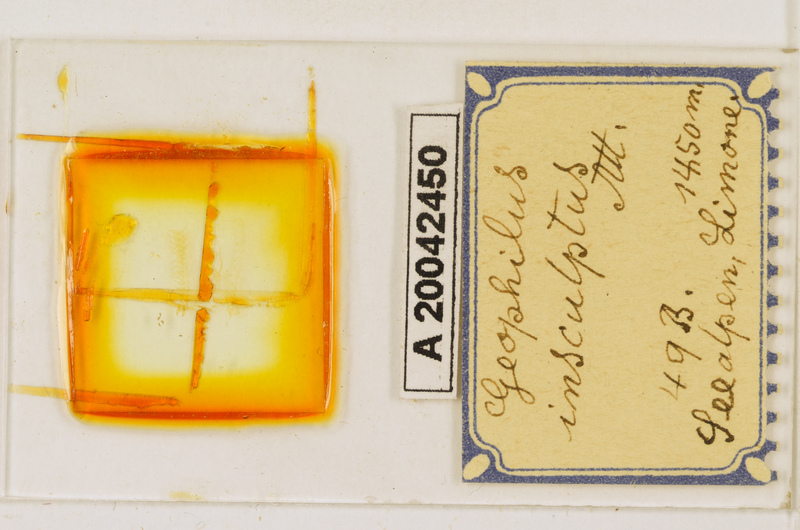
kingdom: Animalia
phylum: Arthropoda
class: Chilopoda
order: Geophilomorpha
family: Geophilidae
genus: Geophilus
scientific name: Geophilus insculptus
